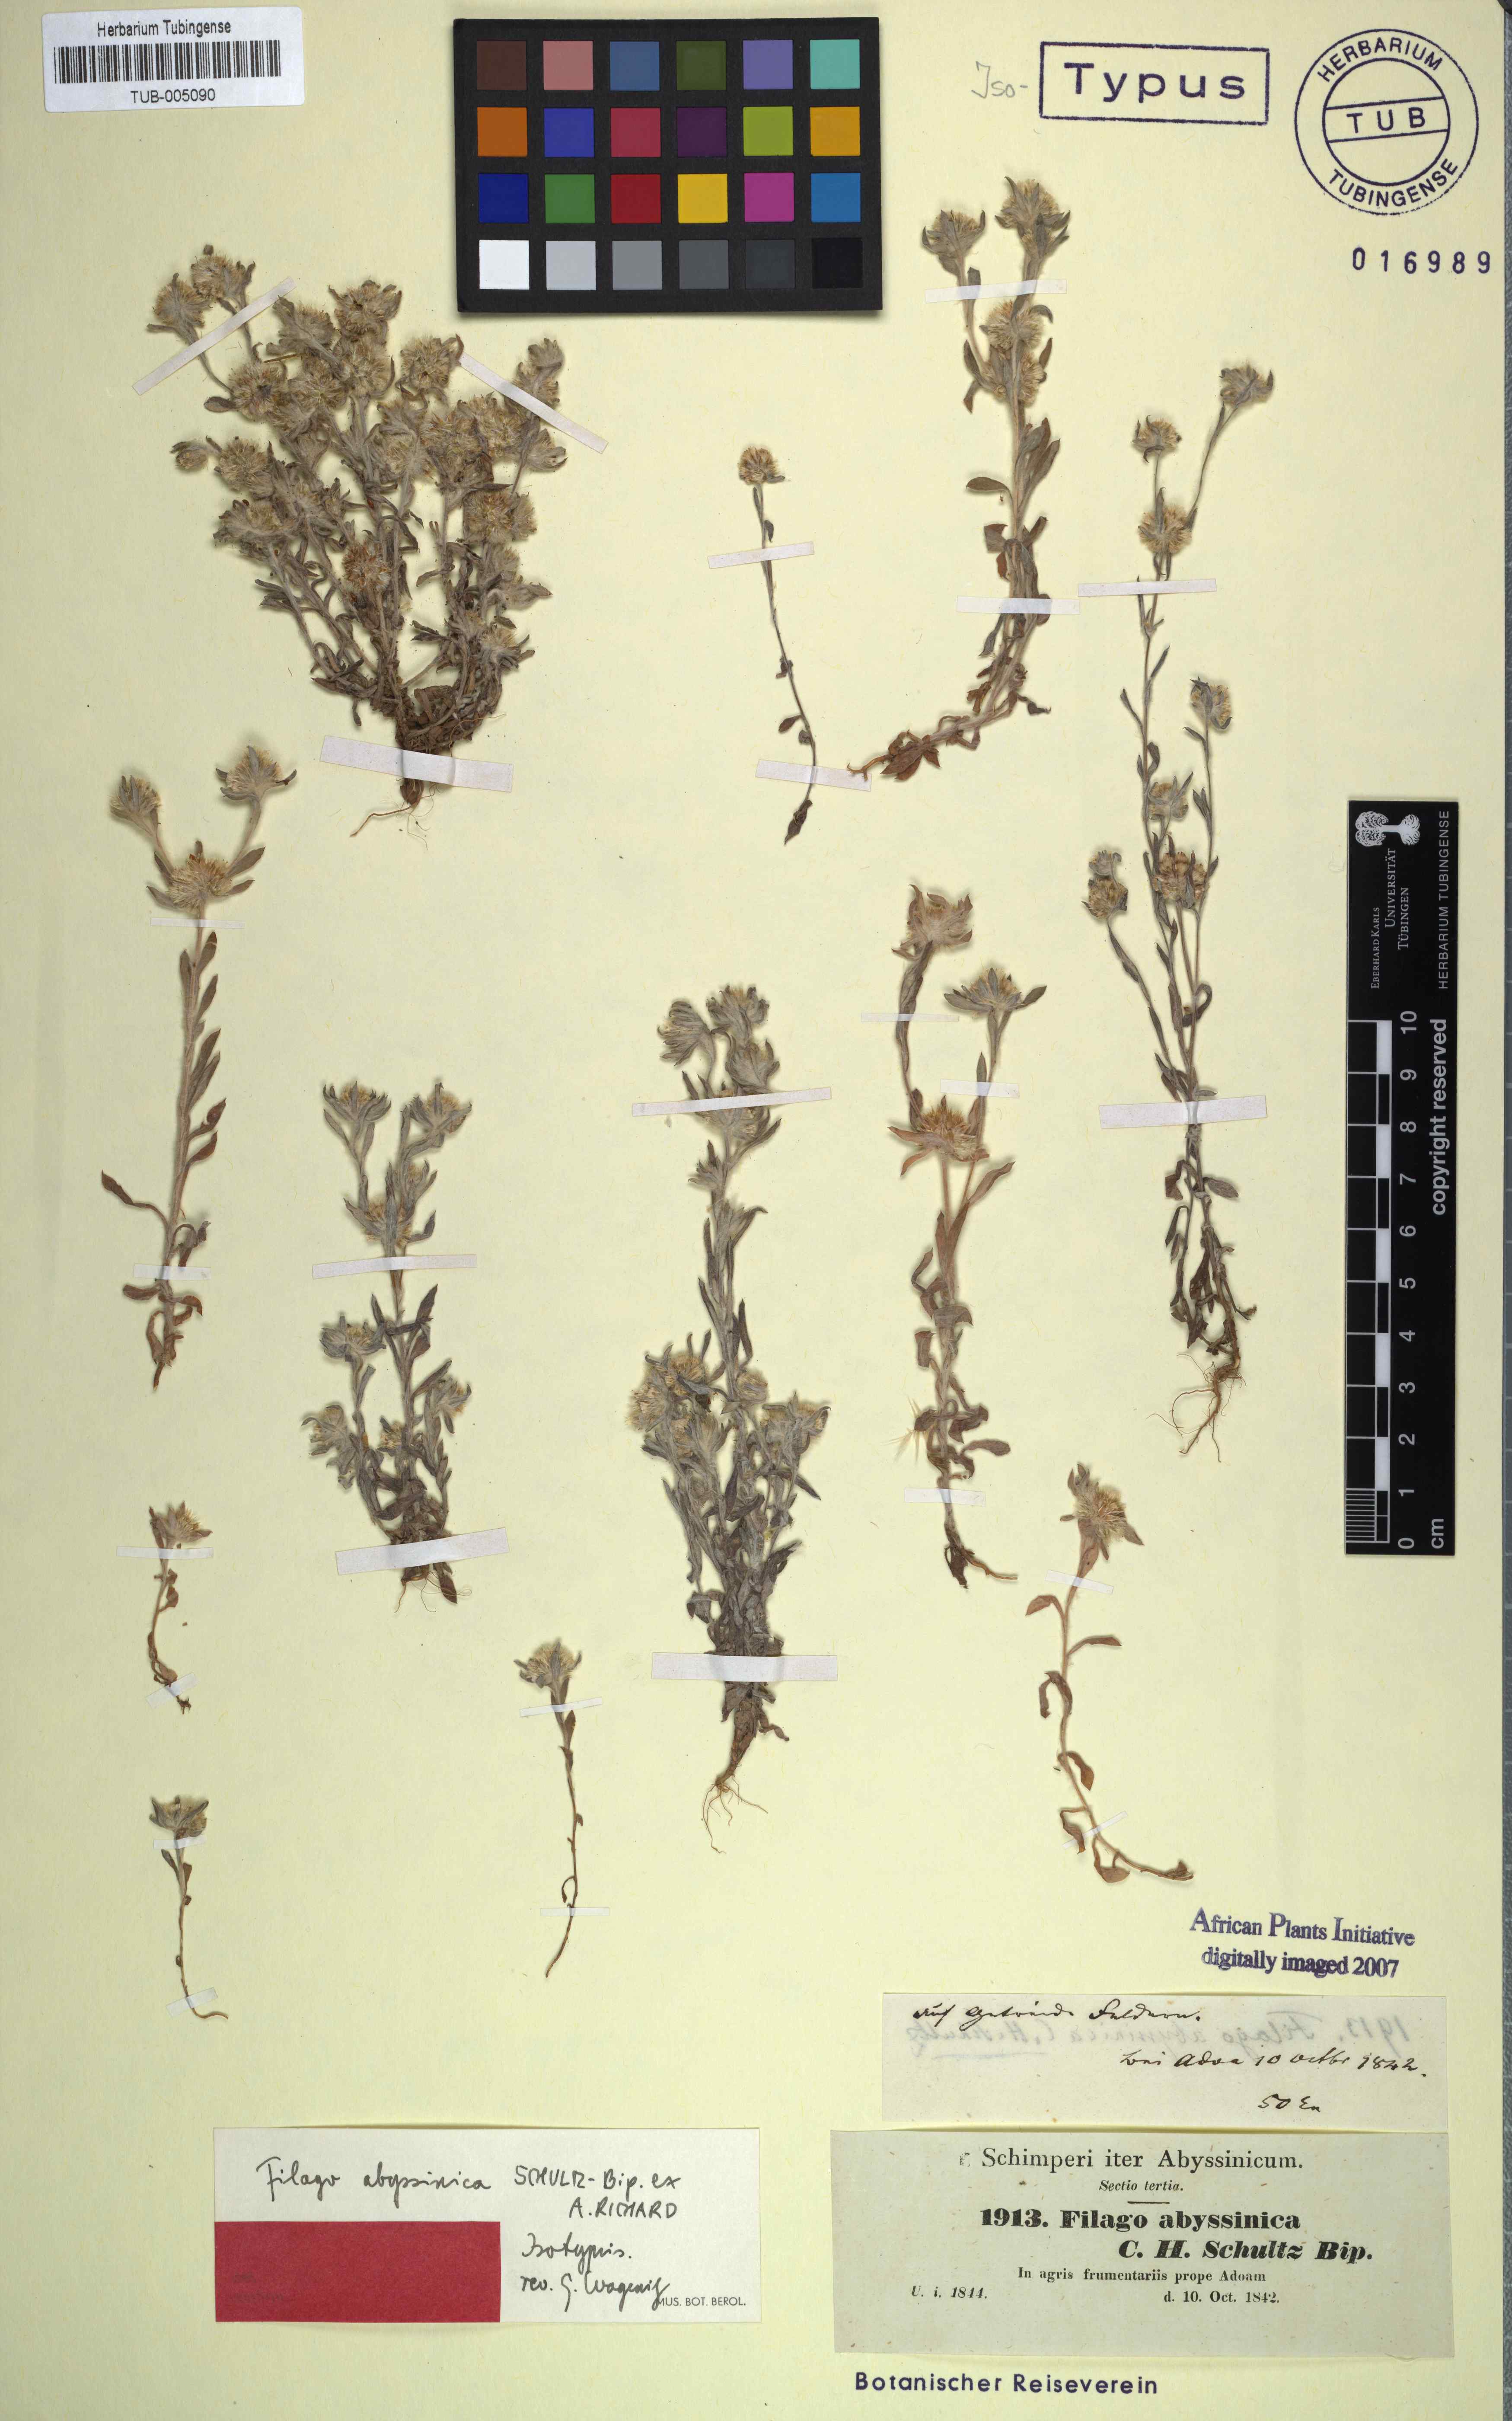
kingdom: Plantae
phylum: Tracheophyta
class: Magnoliopsida
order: Asterales
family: Asteraceae
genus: Filago
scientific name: Filago abyssinica
